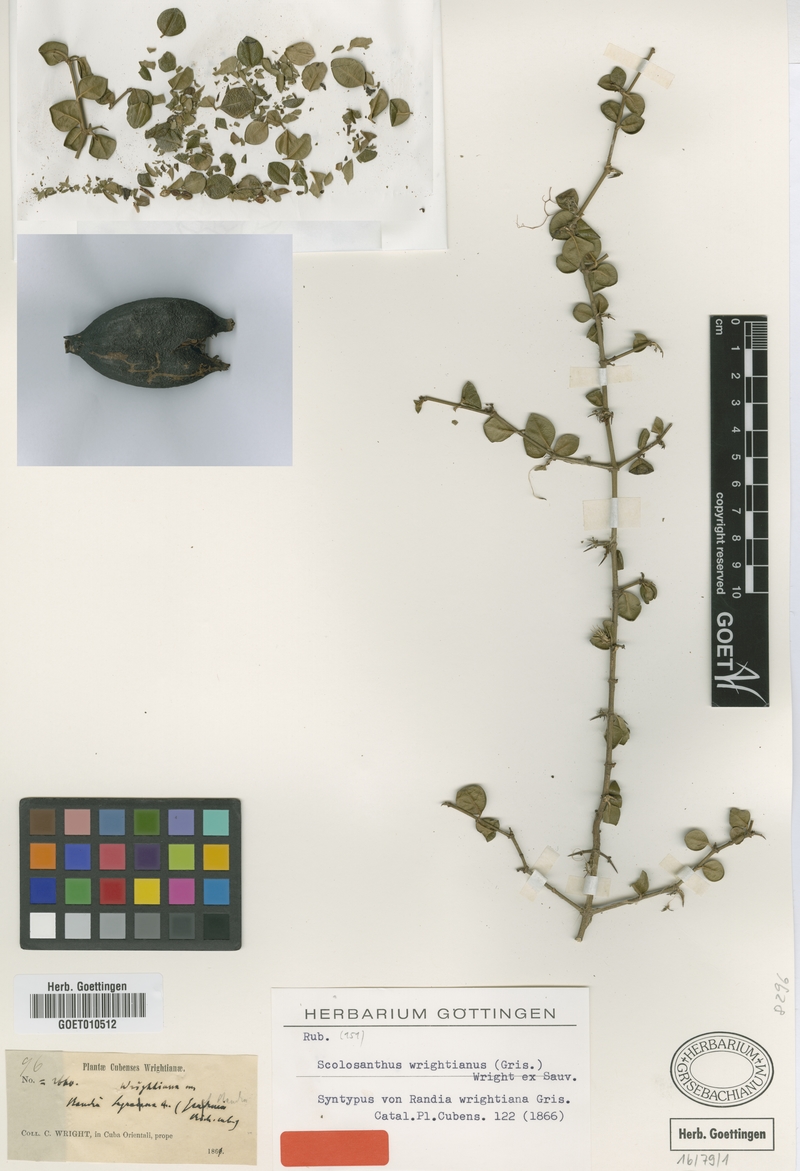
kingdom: Plantae
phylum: Tracheophyta
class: Magnoliopsida
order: Gentianales
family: Rubiaceae
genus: Scolosanthus
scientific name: Scolosanthus wrightianus
